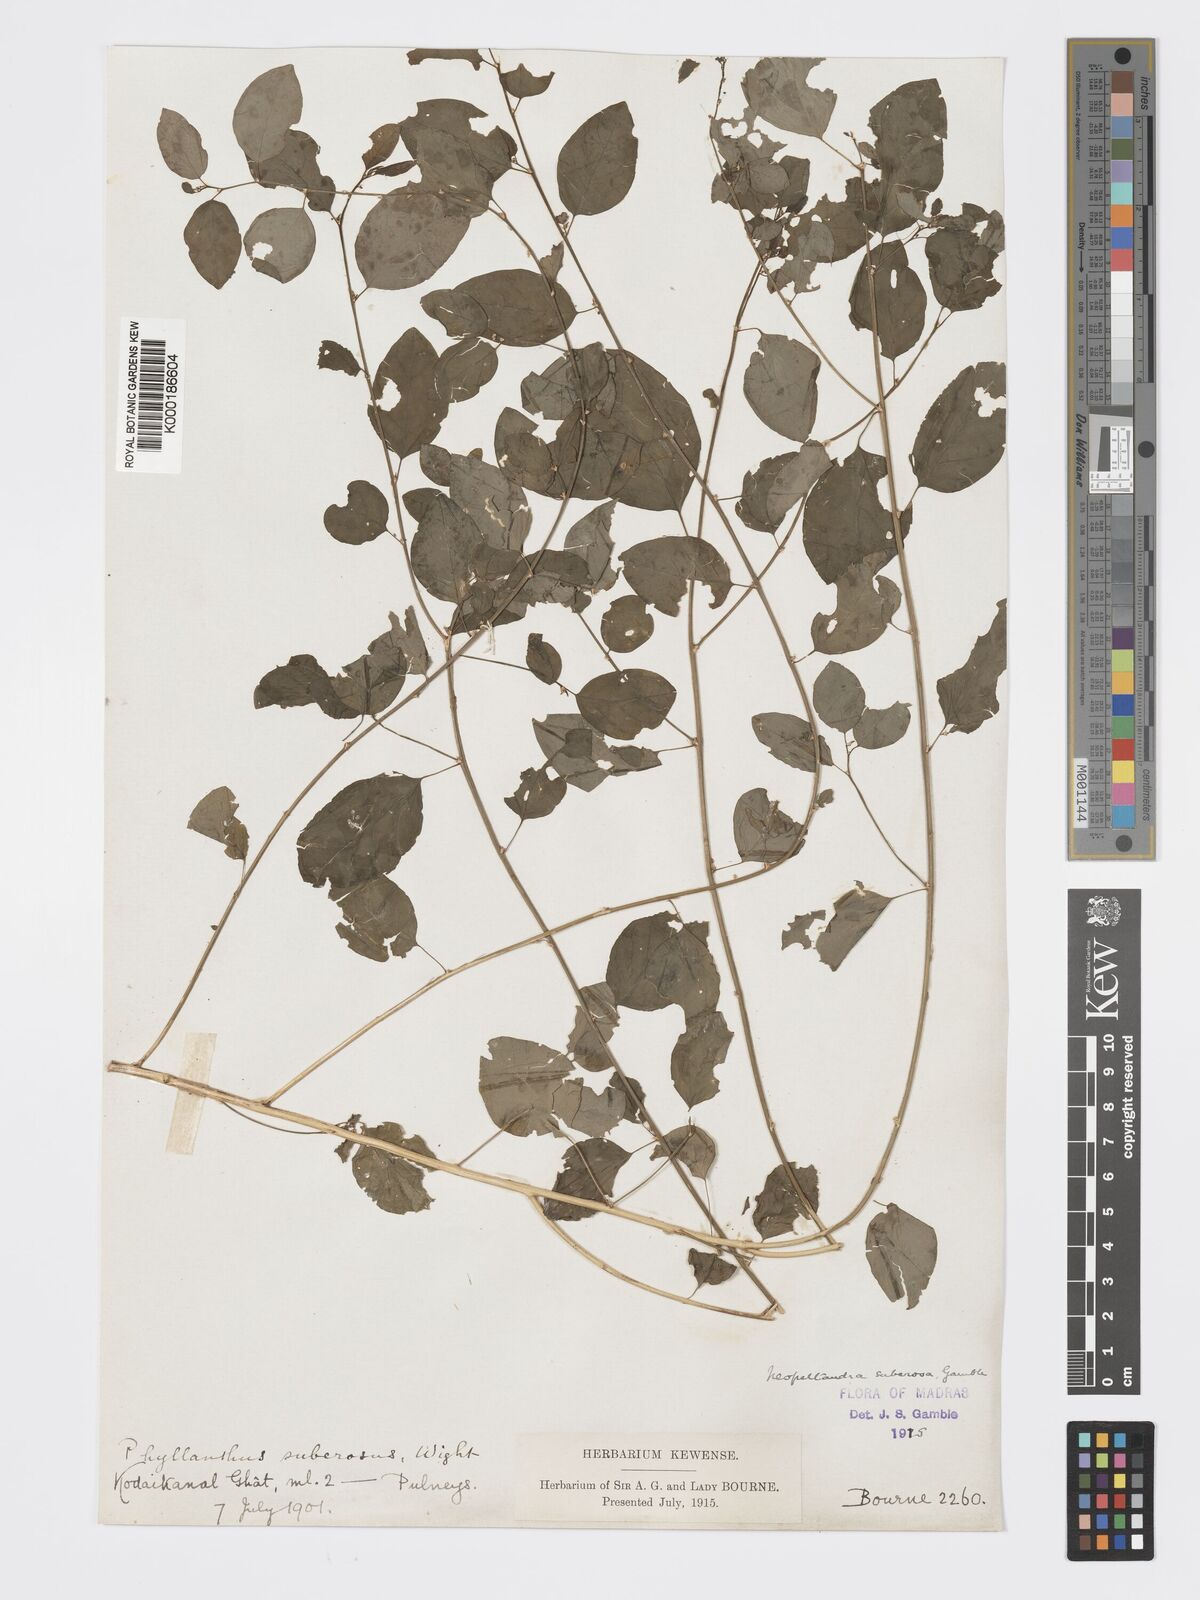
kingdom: Plantae
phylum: Tracheophyta
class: Magnoliopsida
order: Malpighiales
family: Phyllanthaceae
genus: Meineckia
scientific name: Meineckia parvifolia
